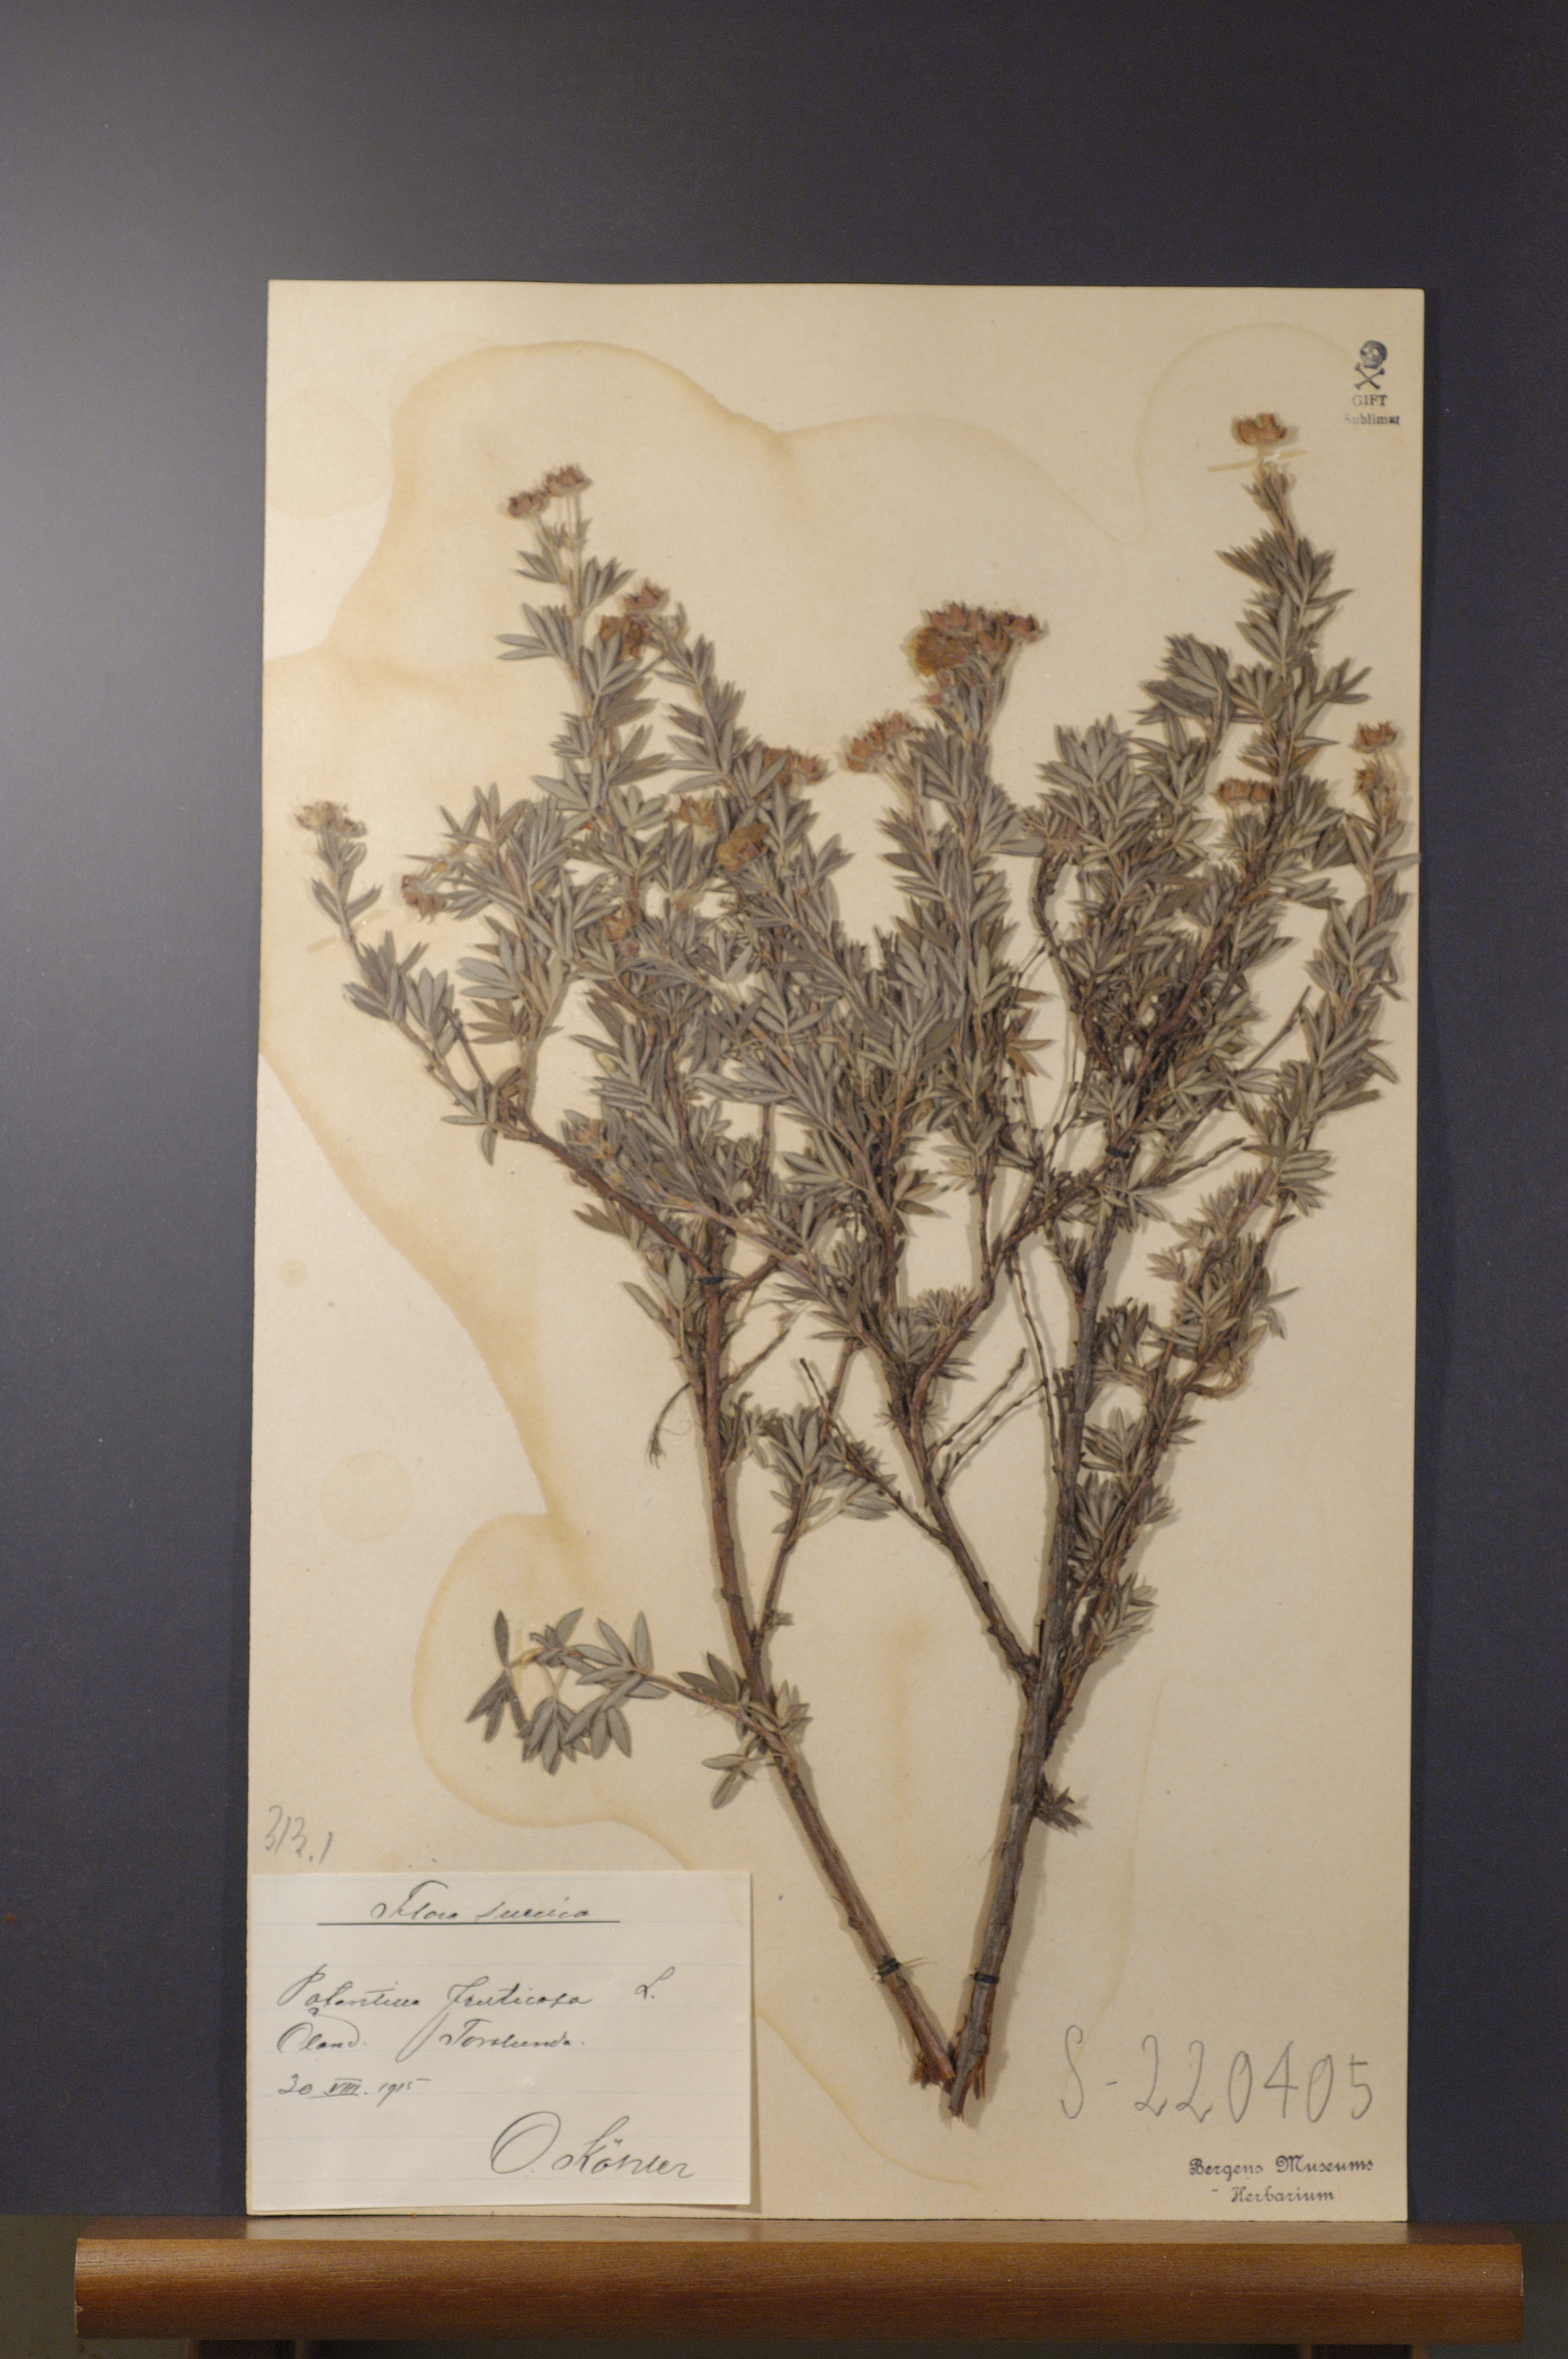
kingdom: Plantae
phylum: Tracheophyta
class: Magnoliopsida
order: Rosales
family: Rosaceae
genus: Dasiphora
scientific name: Dasiphora fruticosa
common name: Shrubby cinquefoil
